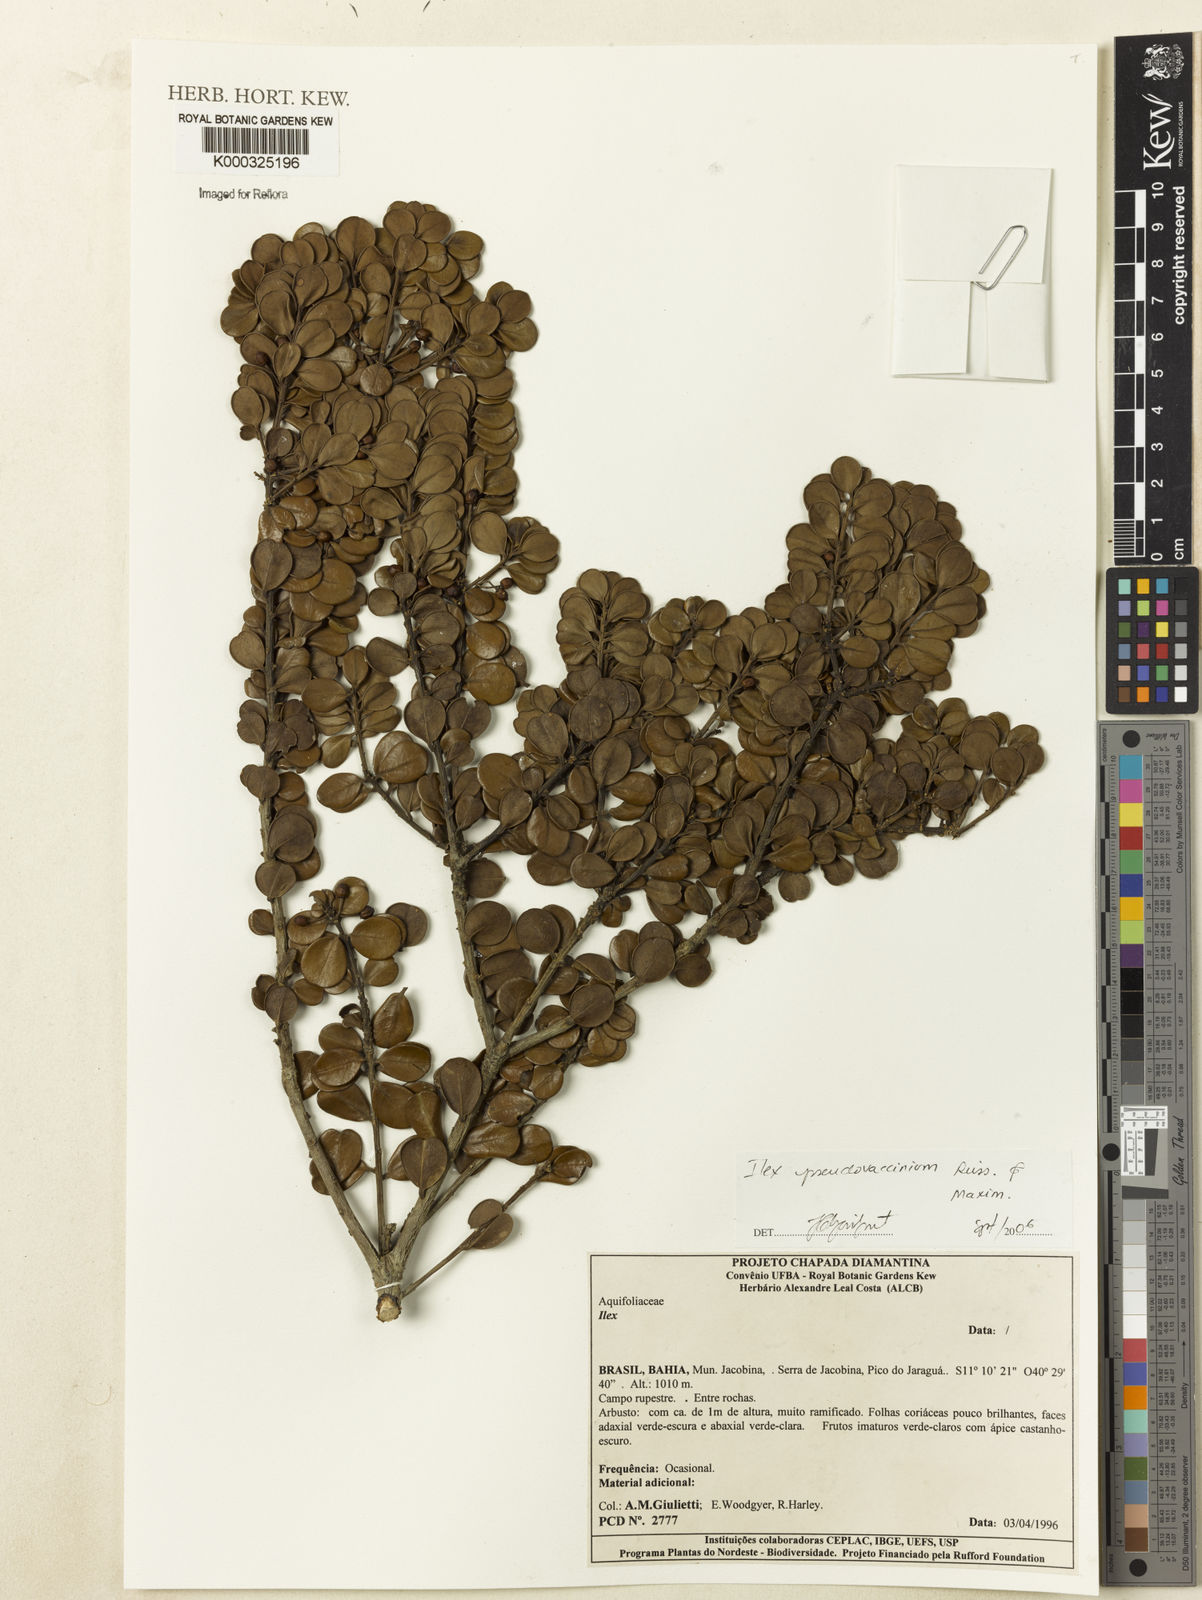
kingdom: Plantae
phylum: Tracheophyta
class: Magnoliopsida
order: Aquifoliales
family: Aquifoliaceae
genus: Ilex
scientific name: Ilex pseudovaccinium
